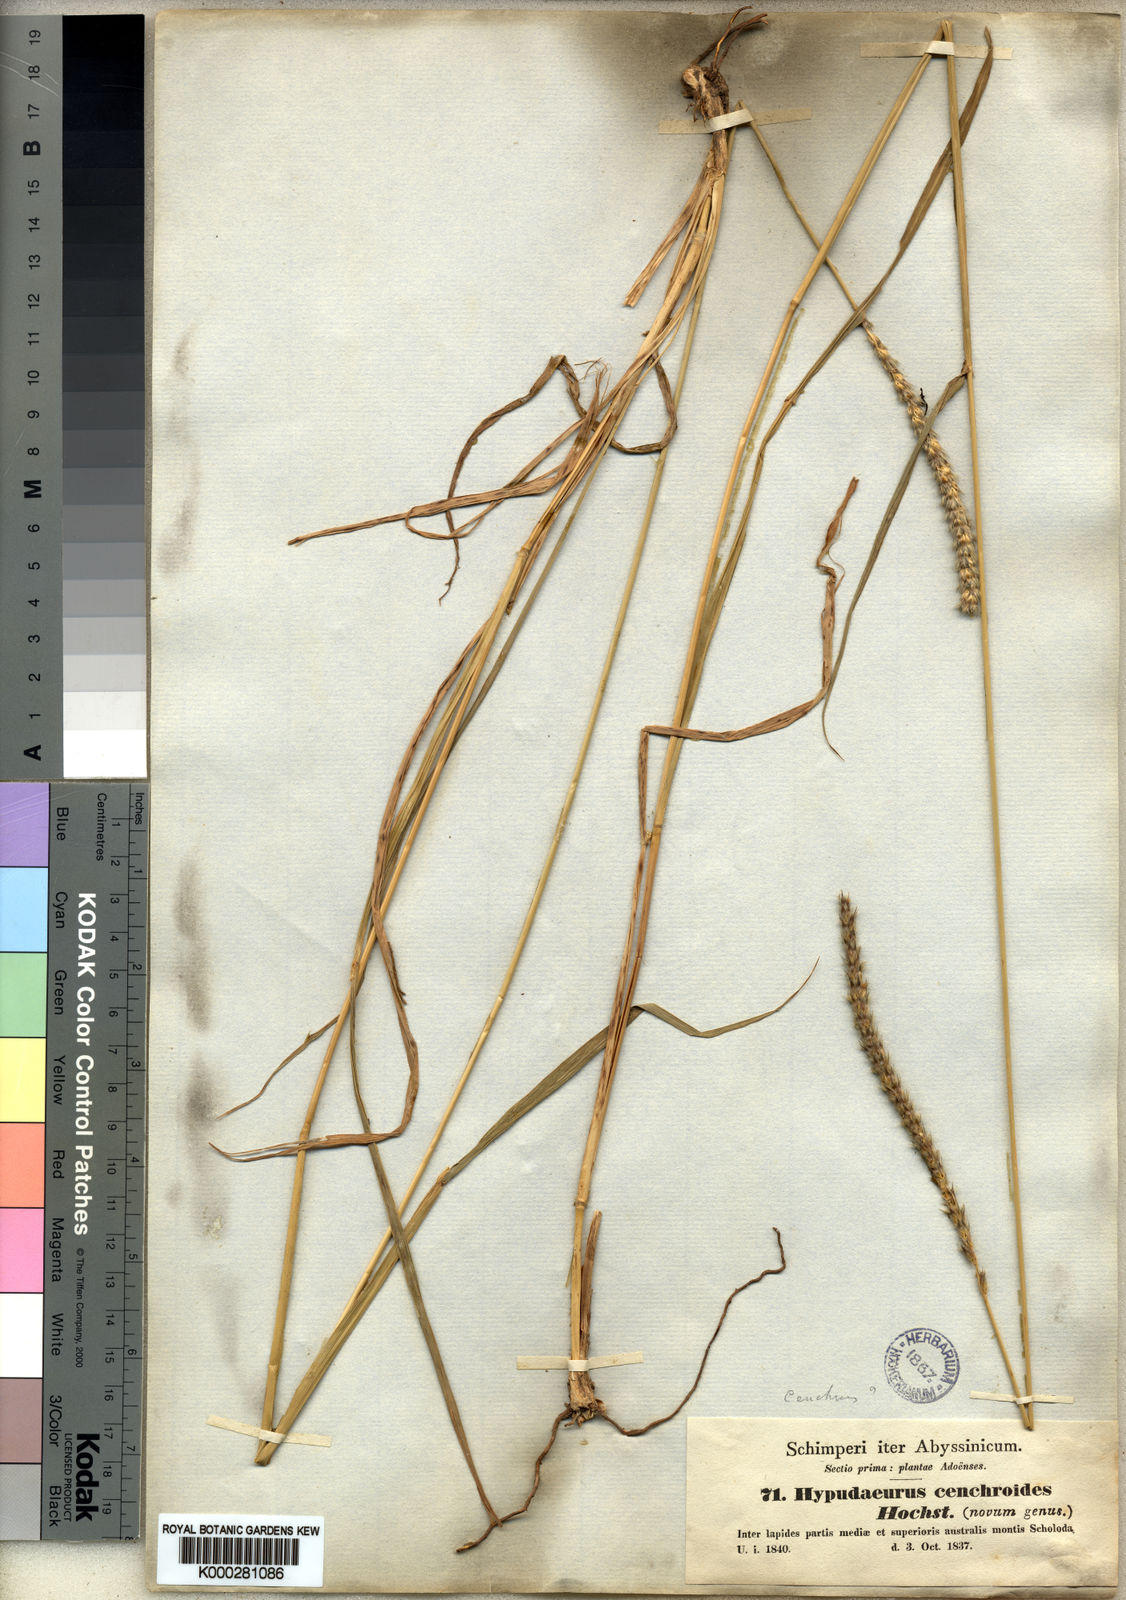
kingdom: Plantae
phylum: Tracheophyta
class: Liliopsida
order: Poales
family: Poaceae
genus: Anthephora
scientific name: Anthephora pubescens
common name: Wool grass
